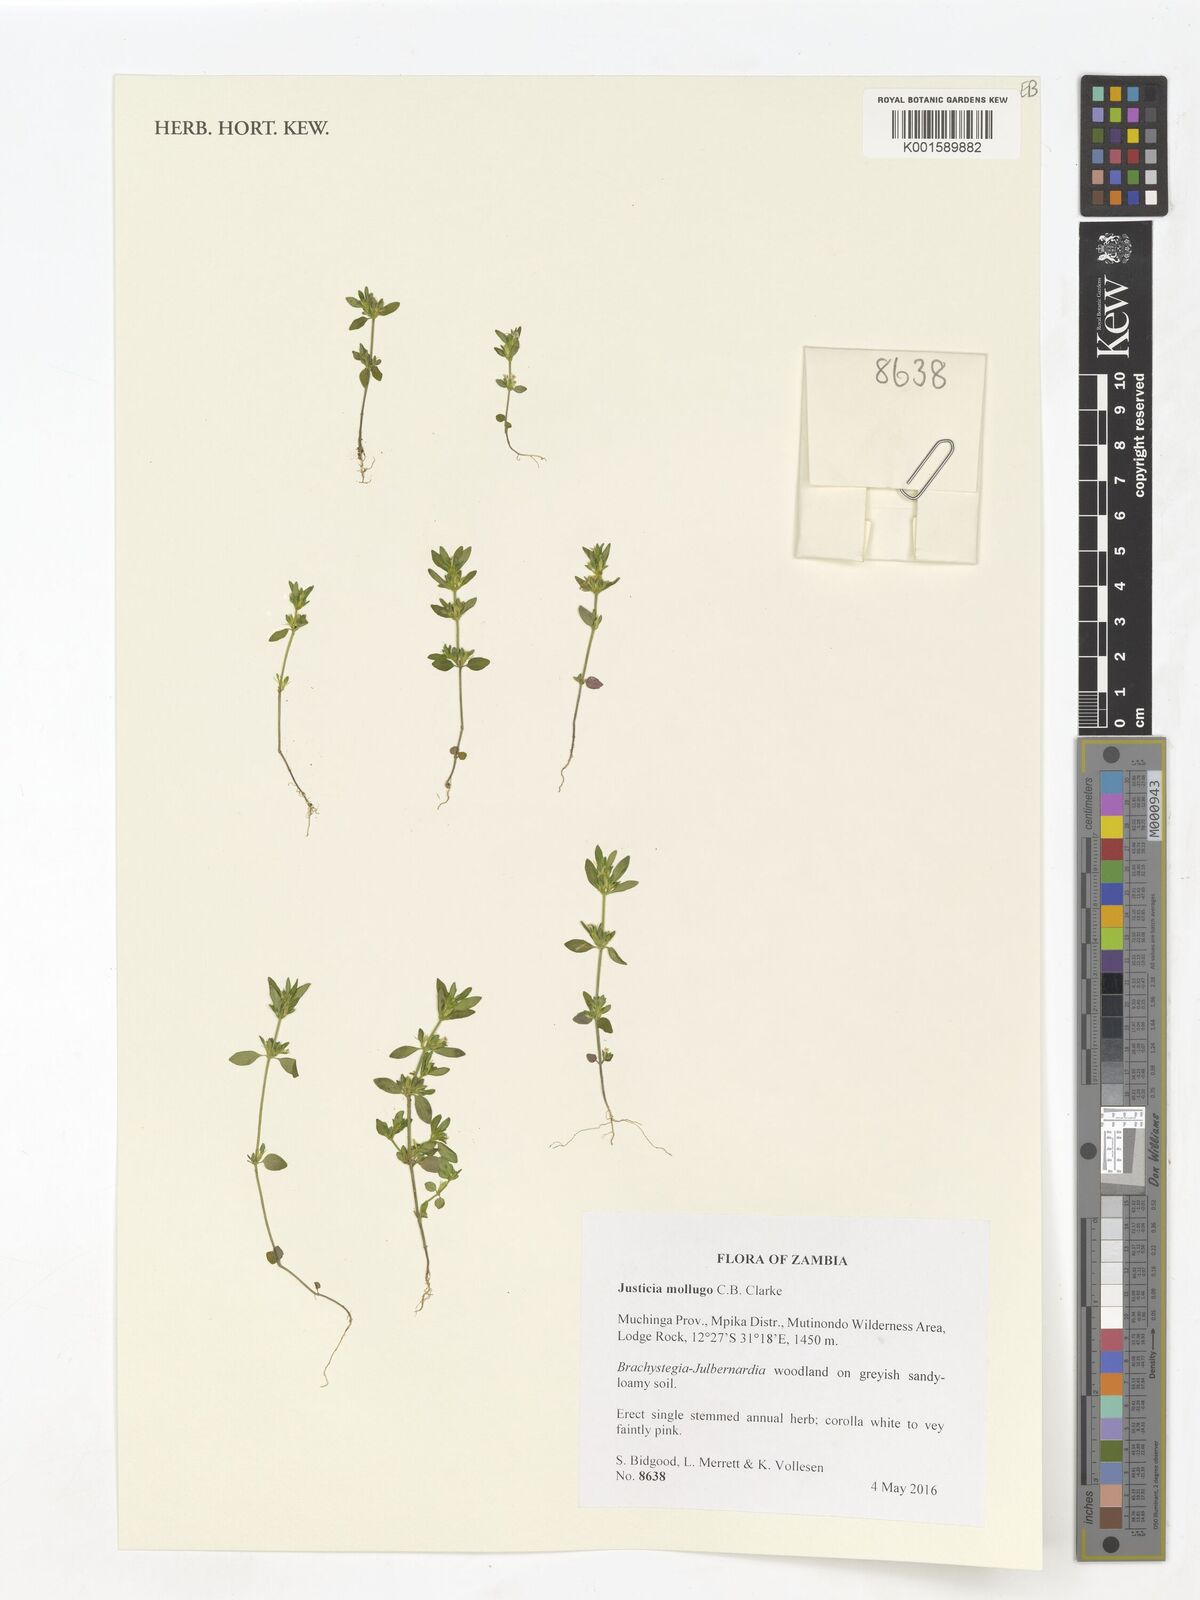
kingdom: Plantae
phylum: Tracheophyta
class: Magnoliopsida
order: Lamiales
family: Acanthaceae
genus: Justicia
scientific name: Justicia mollugo
